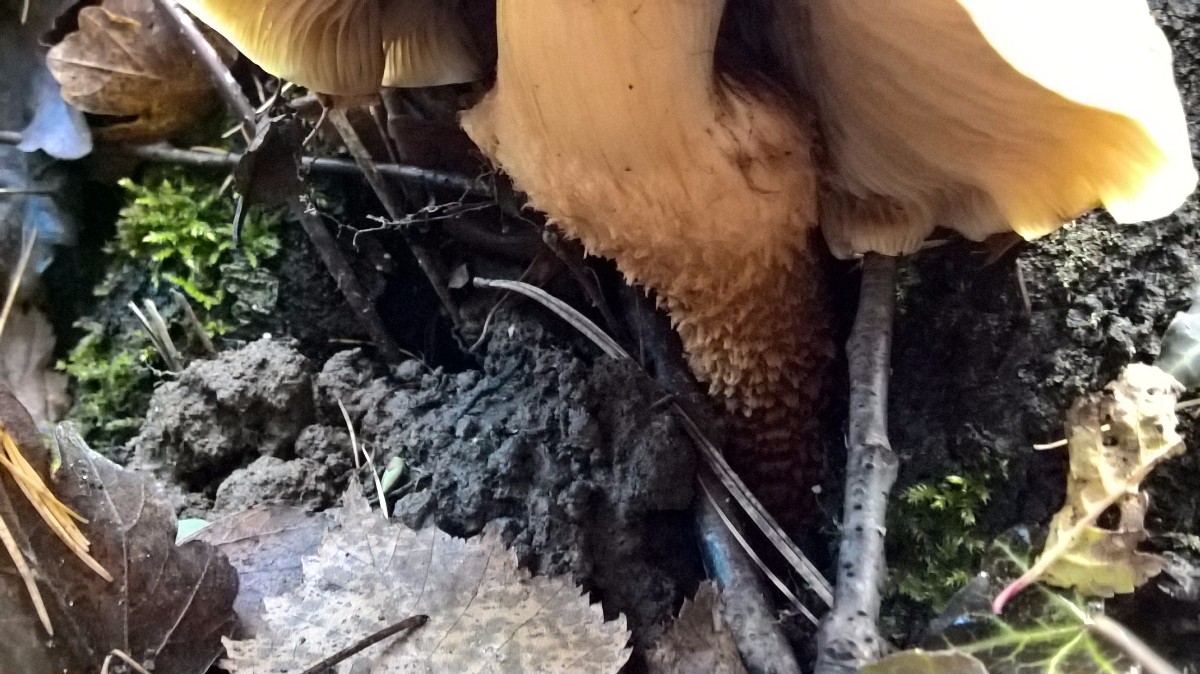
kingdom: Fungi
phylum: Basidiomycota
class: Agaricomycetes
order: Agaricales
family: Strophariaceae
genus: Pholiota
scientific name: Pholiota squarrosa
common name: krumskællet skælhat
